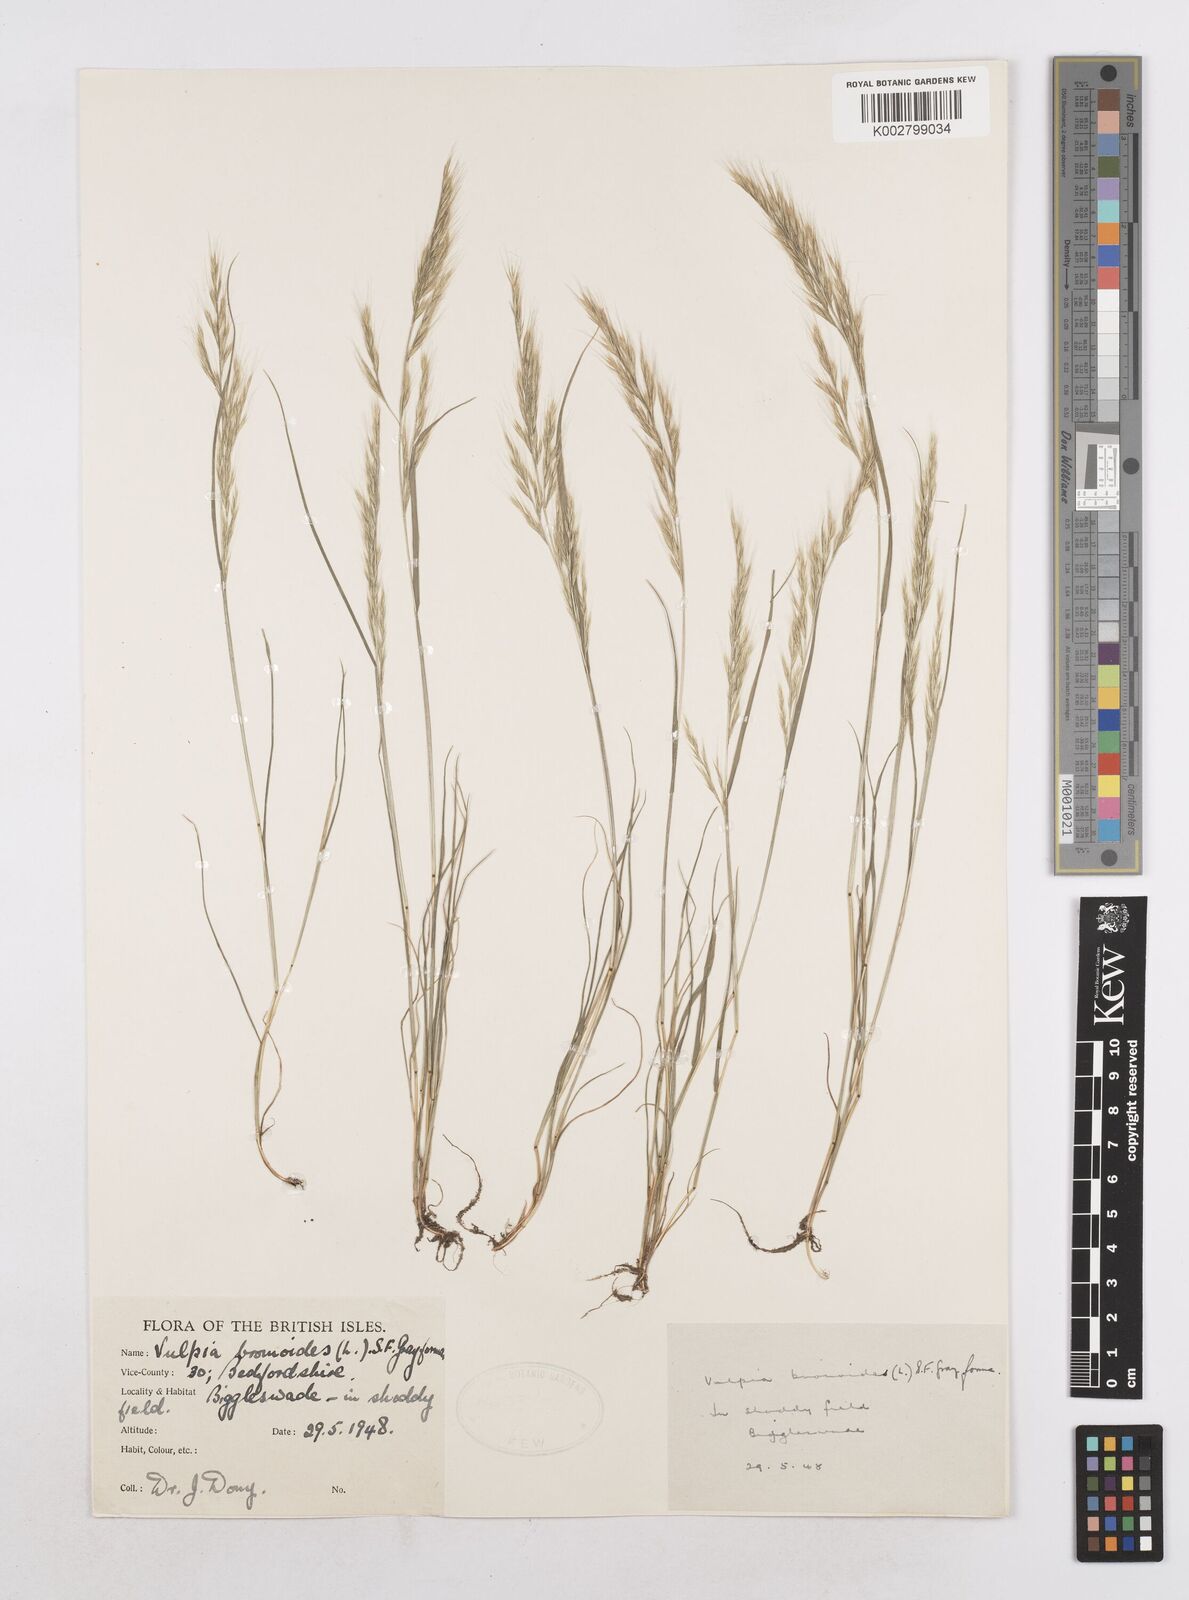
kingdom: Plantae
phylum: Tracheophyta
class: Liliopsida
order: Poales
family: Poaceae
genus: Festuca
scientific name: Festuca bromoides
